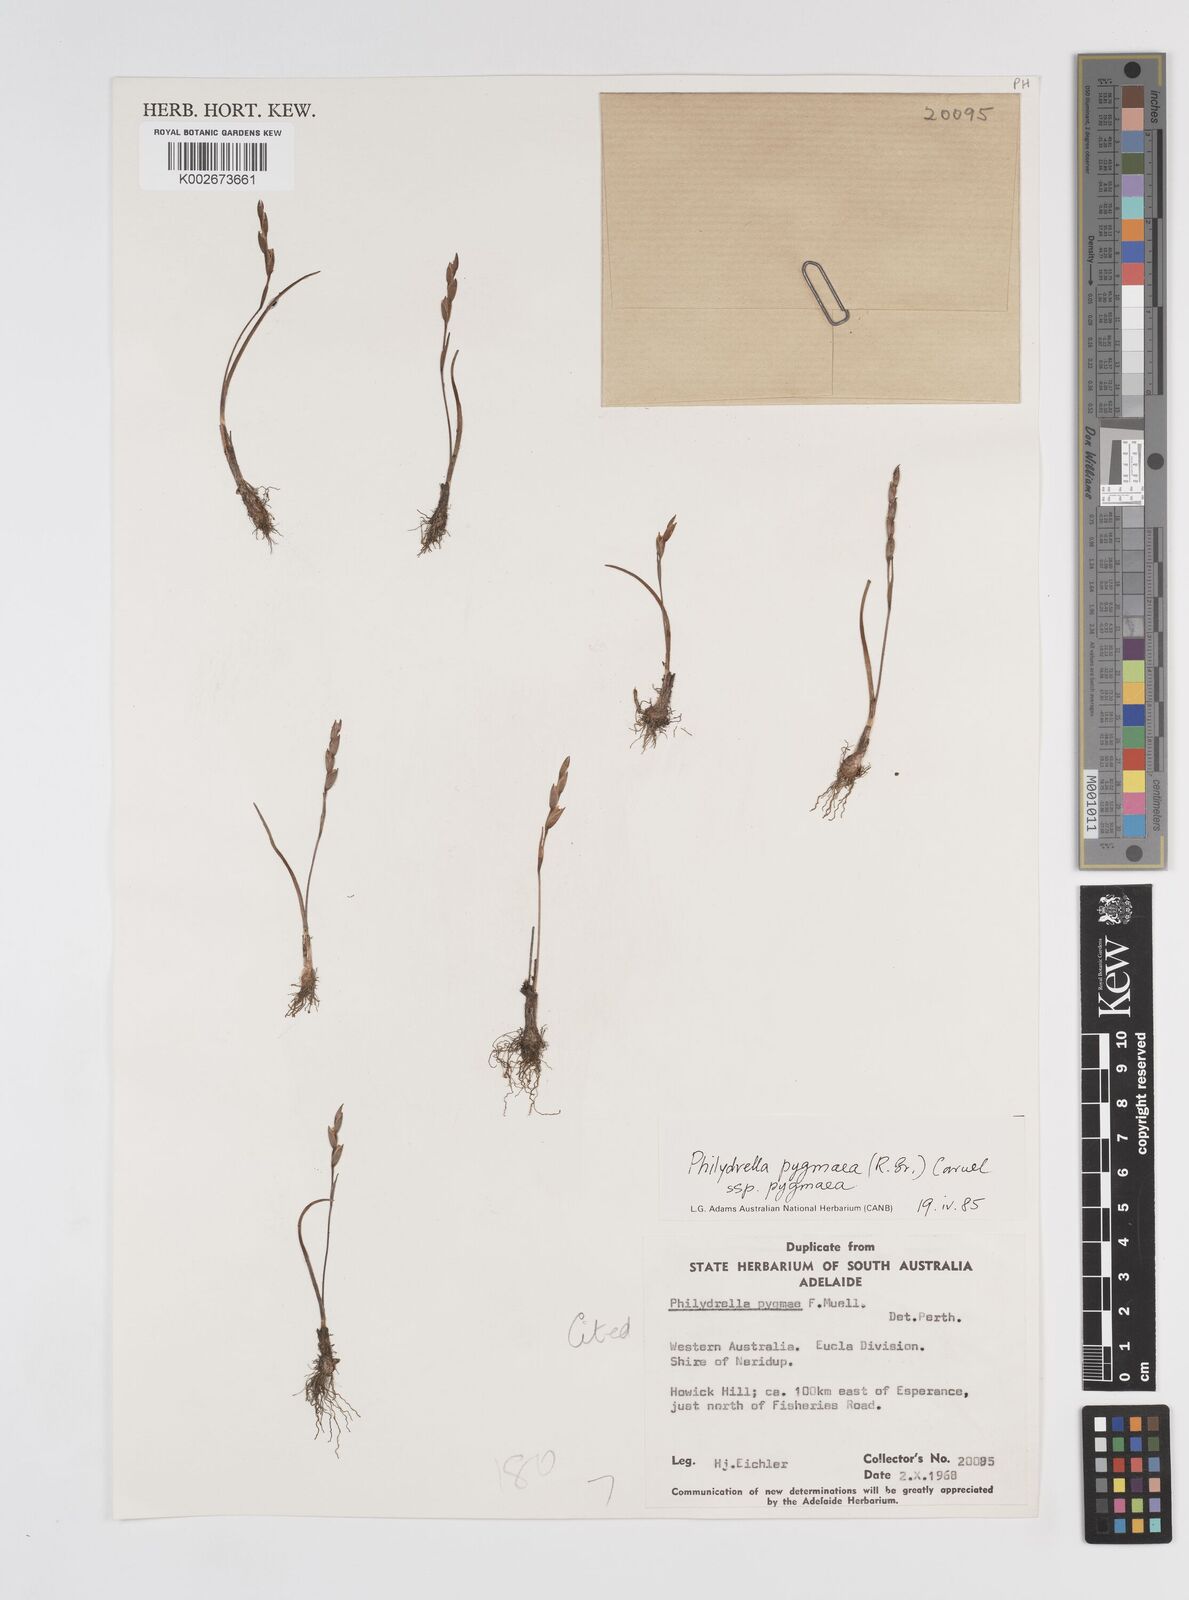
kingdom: Plantae
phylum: Tracheophyta
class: Liliopsida
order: Commelinales
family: Philydraceae
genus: Philydrella
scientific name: Philydrella pygmaea
